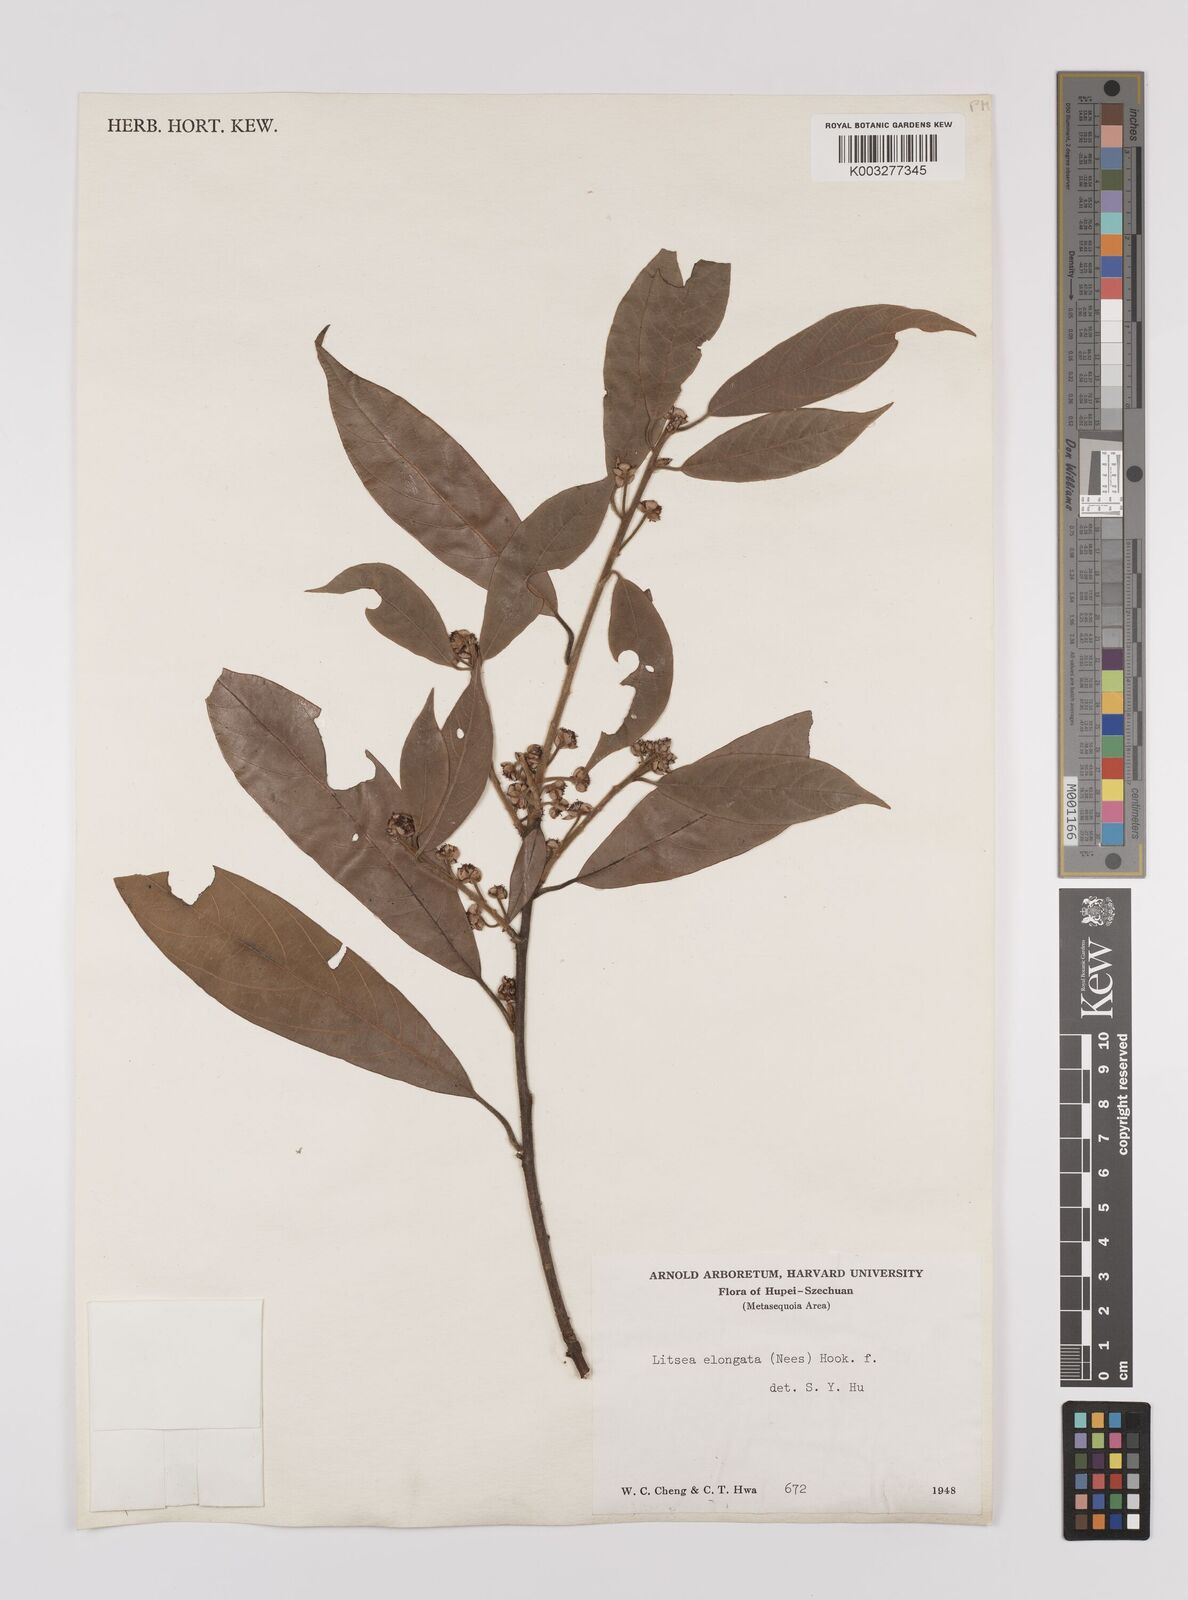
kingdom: Plantae
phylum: Tracheophyta
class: Magnoliopsida
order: Laurales
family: Lauraceae
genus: Litsea
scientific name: Litsea elongata
